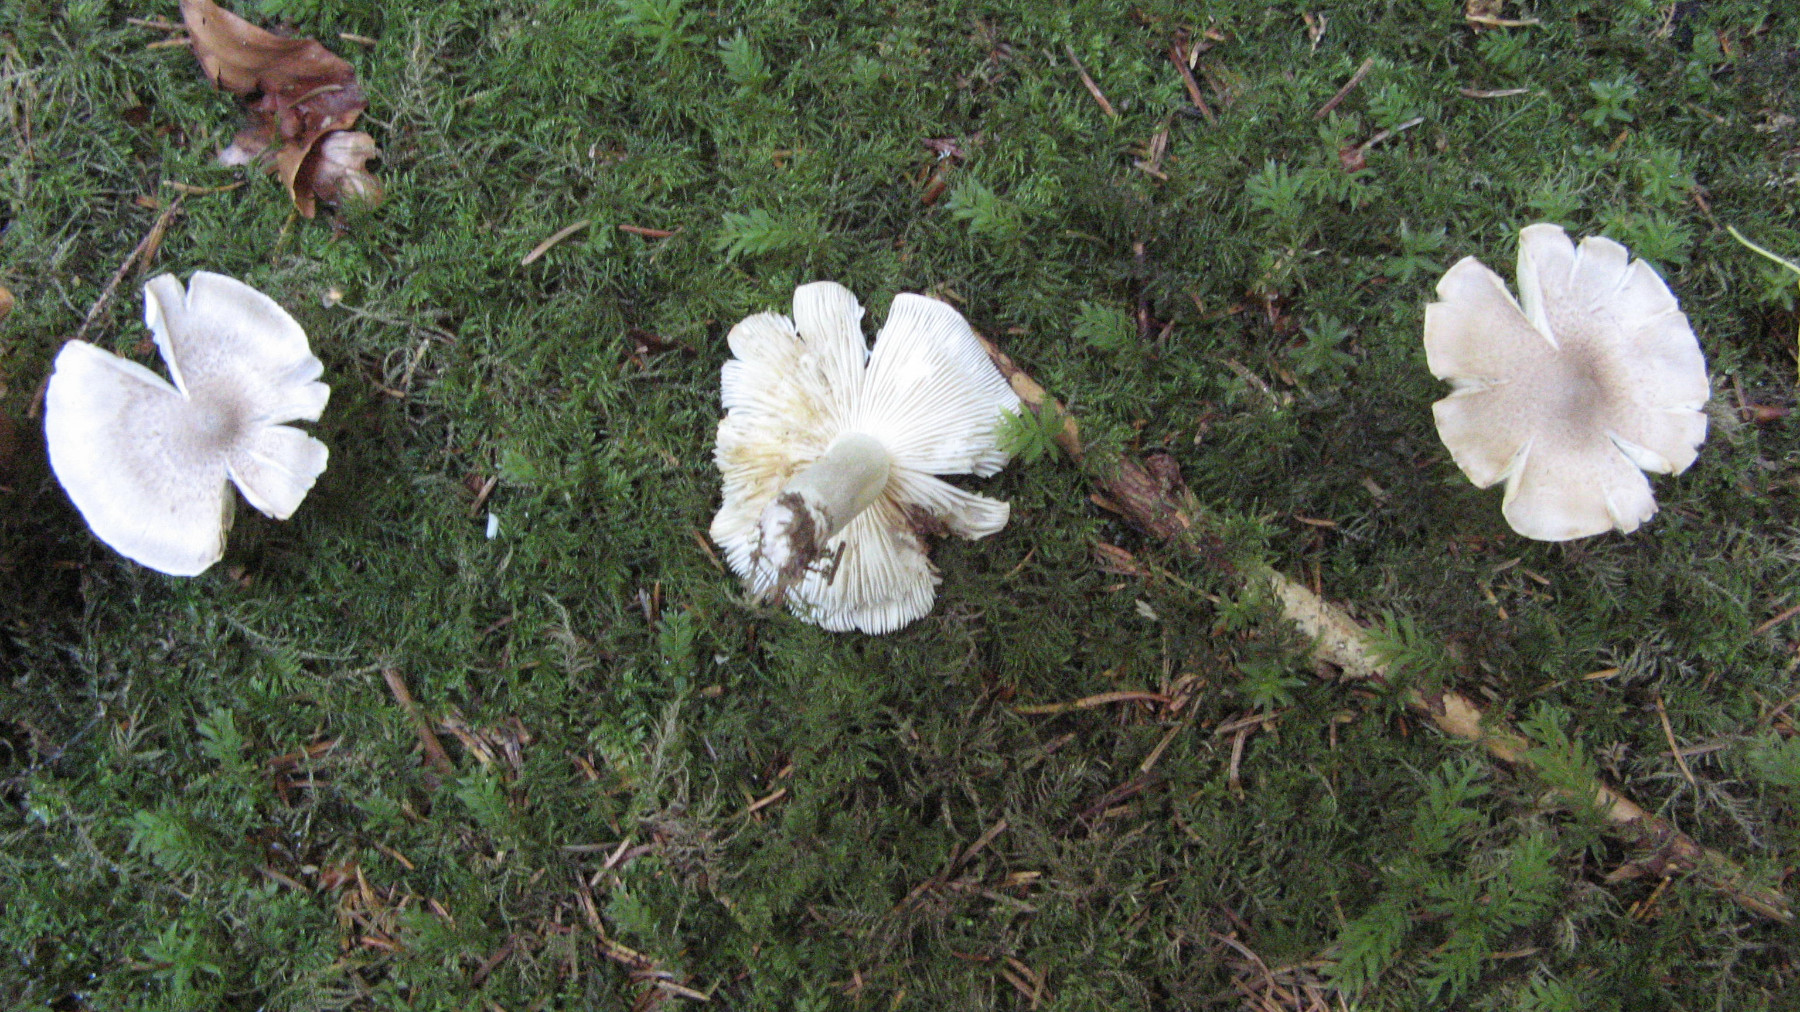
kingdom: Fungi
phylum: Basidiomycota
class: Agaricomycetes
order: Agaricales
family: Tricholomataceae
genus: Tricholoma
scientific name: Tricholoma scalpturatum
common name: gulplettet ridderhat
